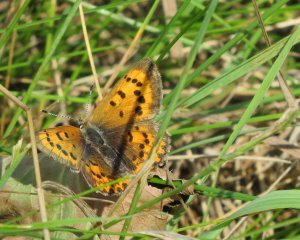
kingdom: Animalia
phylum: Arthropoda
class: Insecta
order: Lepidoptera
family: Lycaenidae
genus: Epidemia
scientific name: Epidemia dorcas
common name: Dorcas Copper
